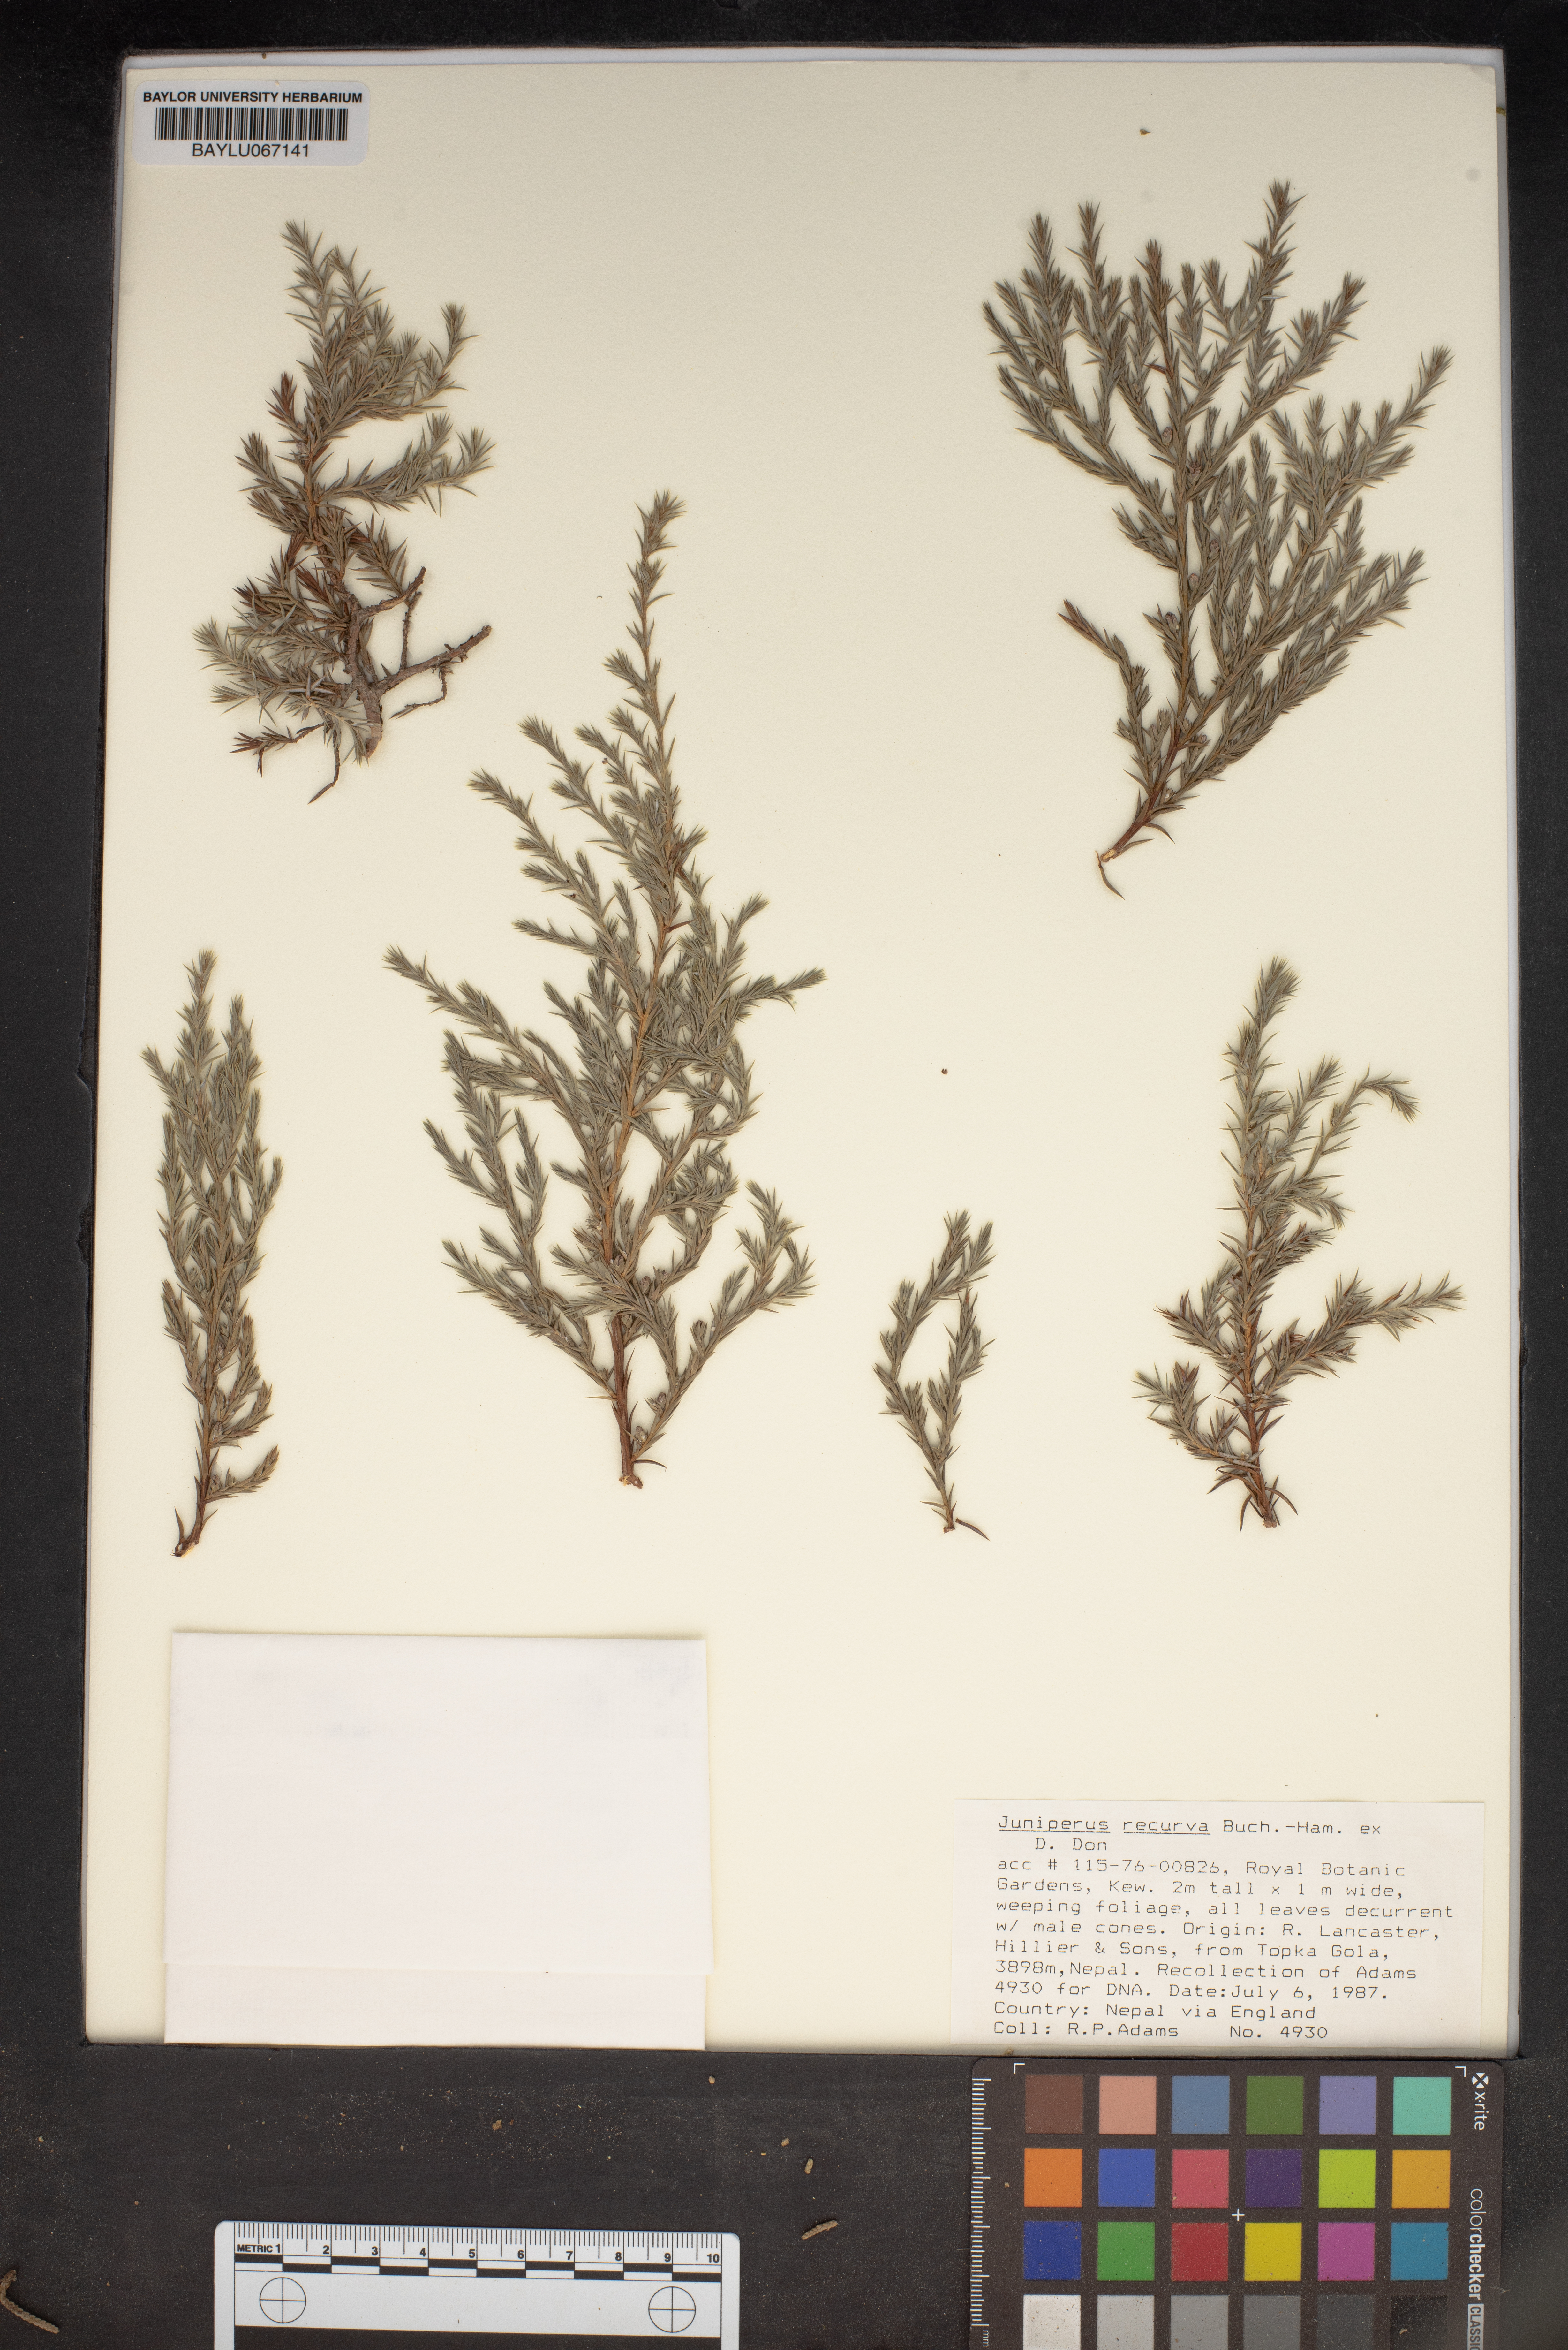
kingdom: Plantae
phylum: Tracheophyta
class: Pinopsida
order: Pinales
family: Cupressaceae
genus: Juniperus
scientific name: Juniperus recurva
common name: Drooping juniper
